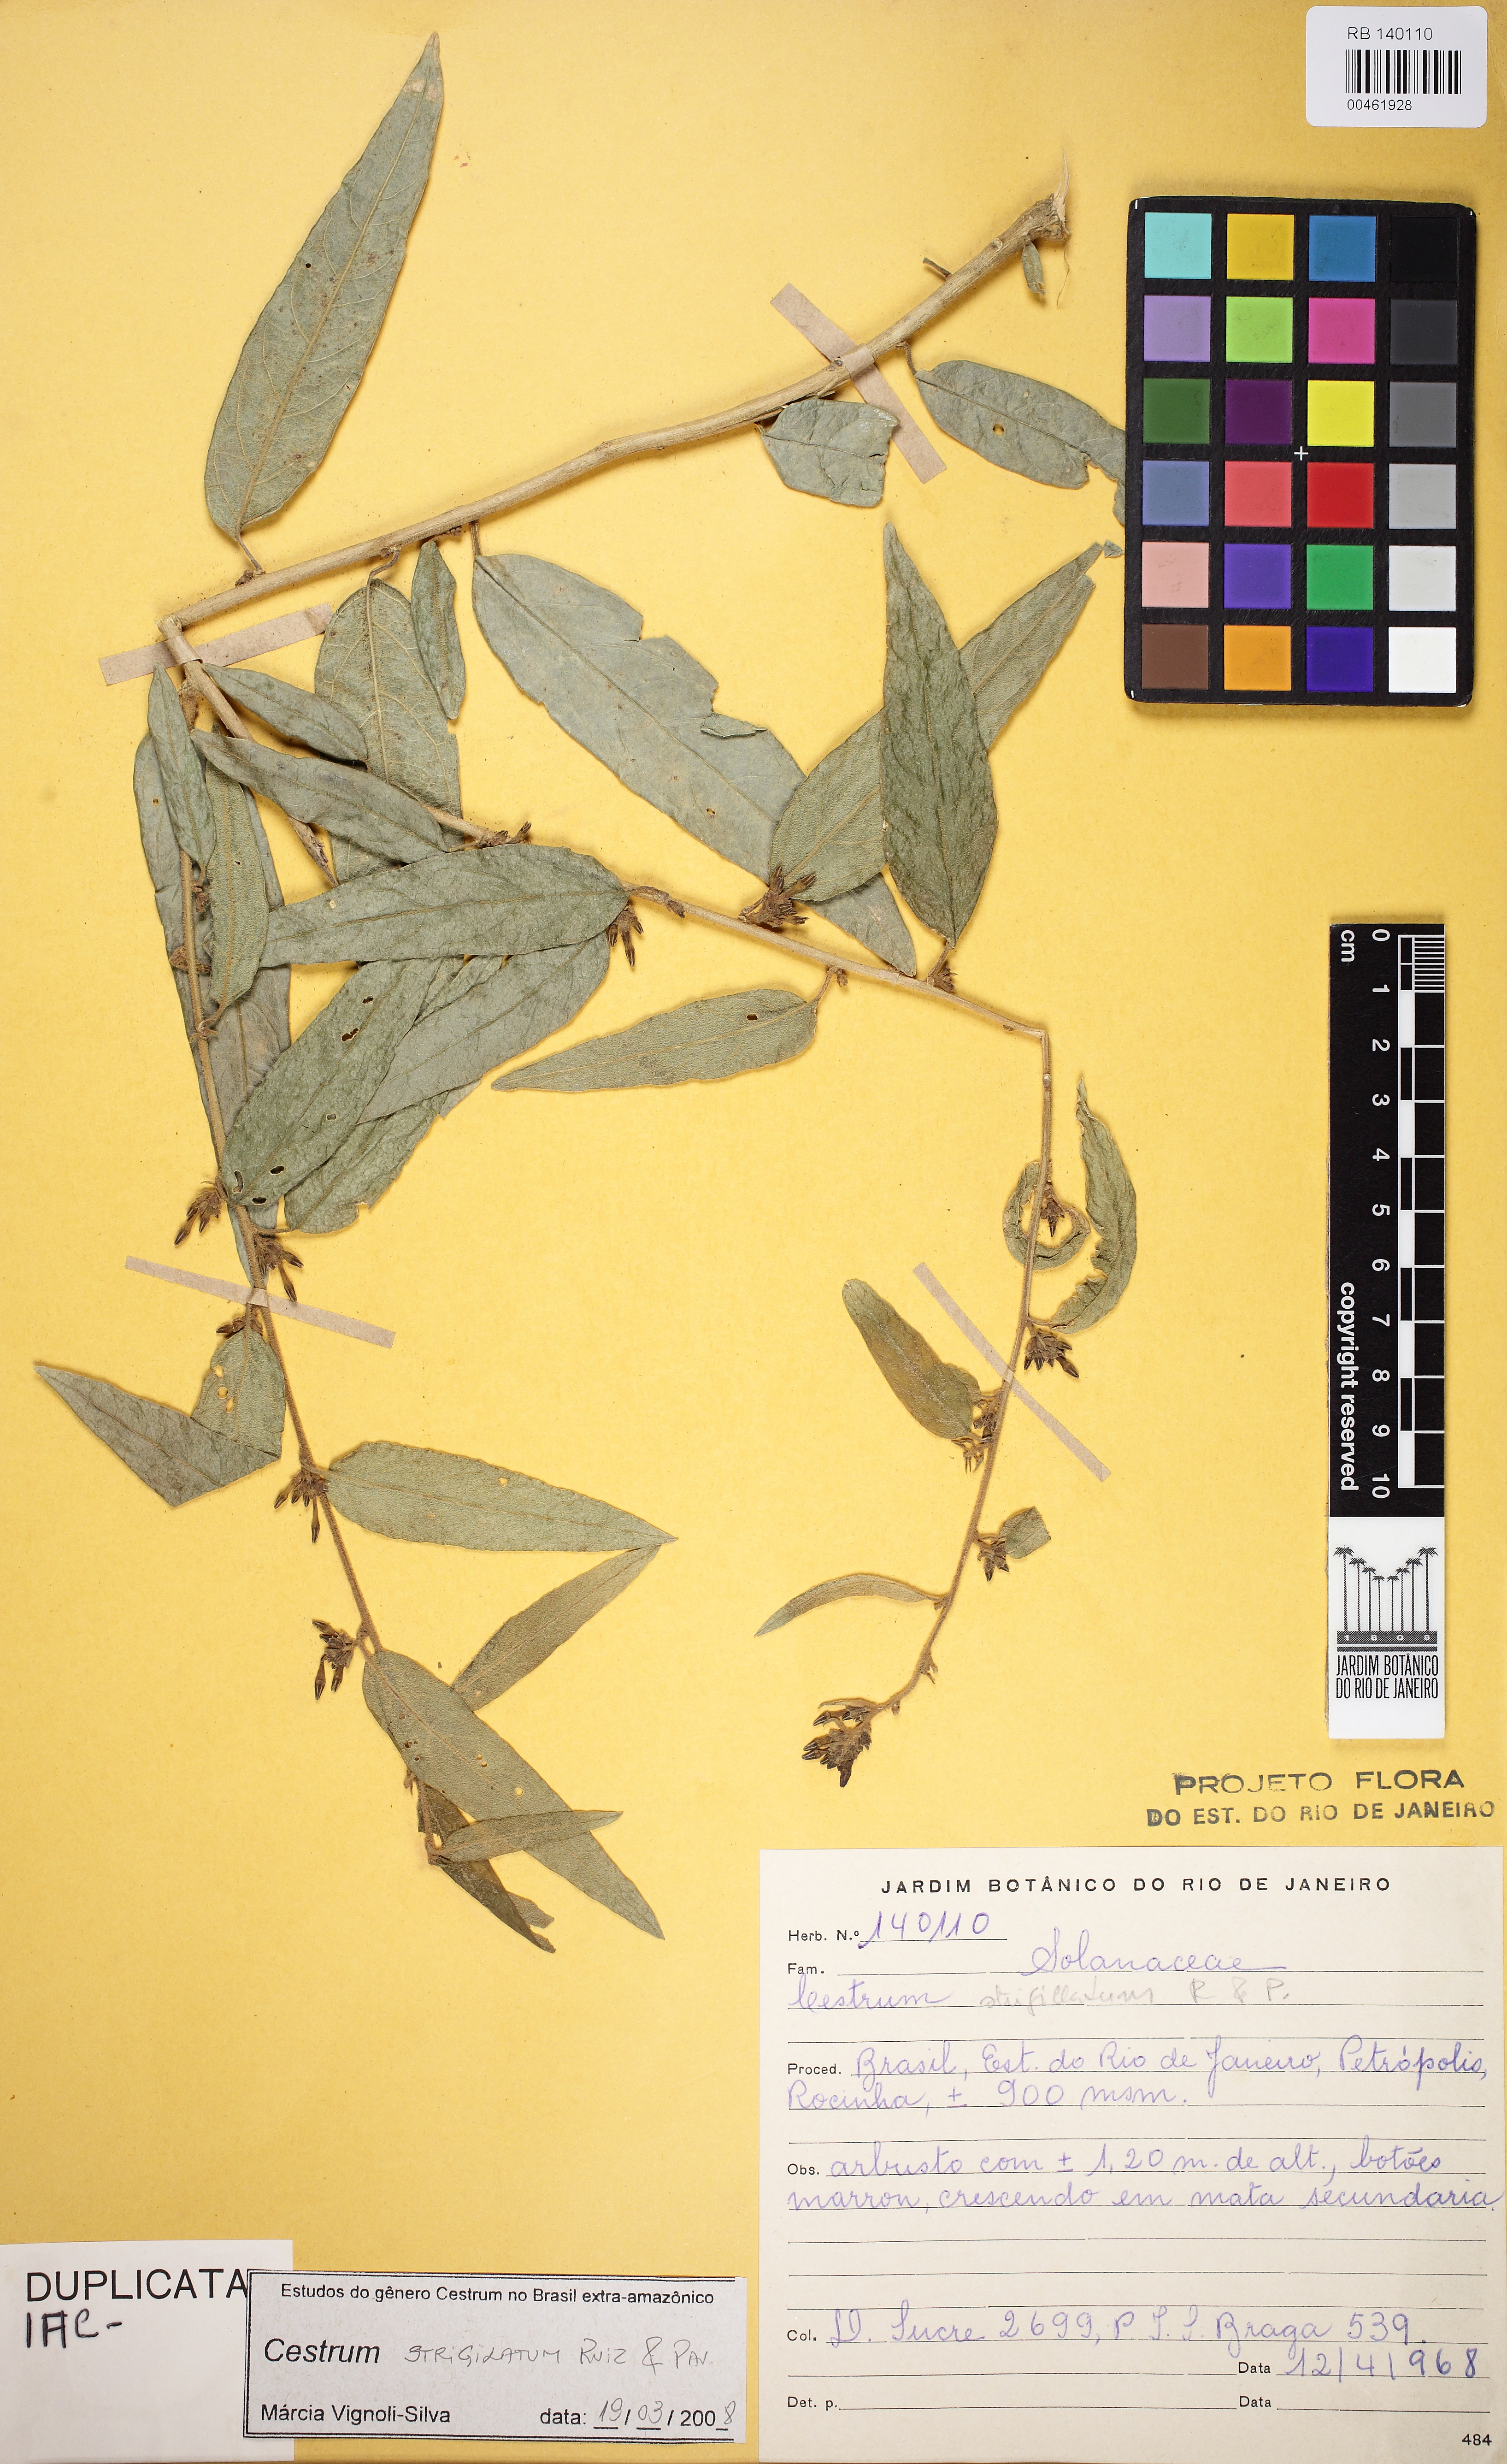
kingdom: Plantae
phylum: Tracheophyta
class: Magnoliopsida
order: Solanales
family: Solanaceae
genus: Cestrum
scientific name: Cestrum strigillatum
